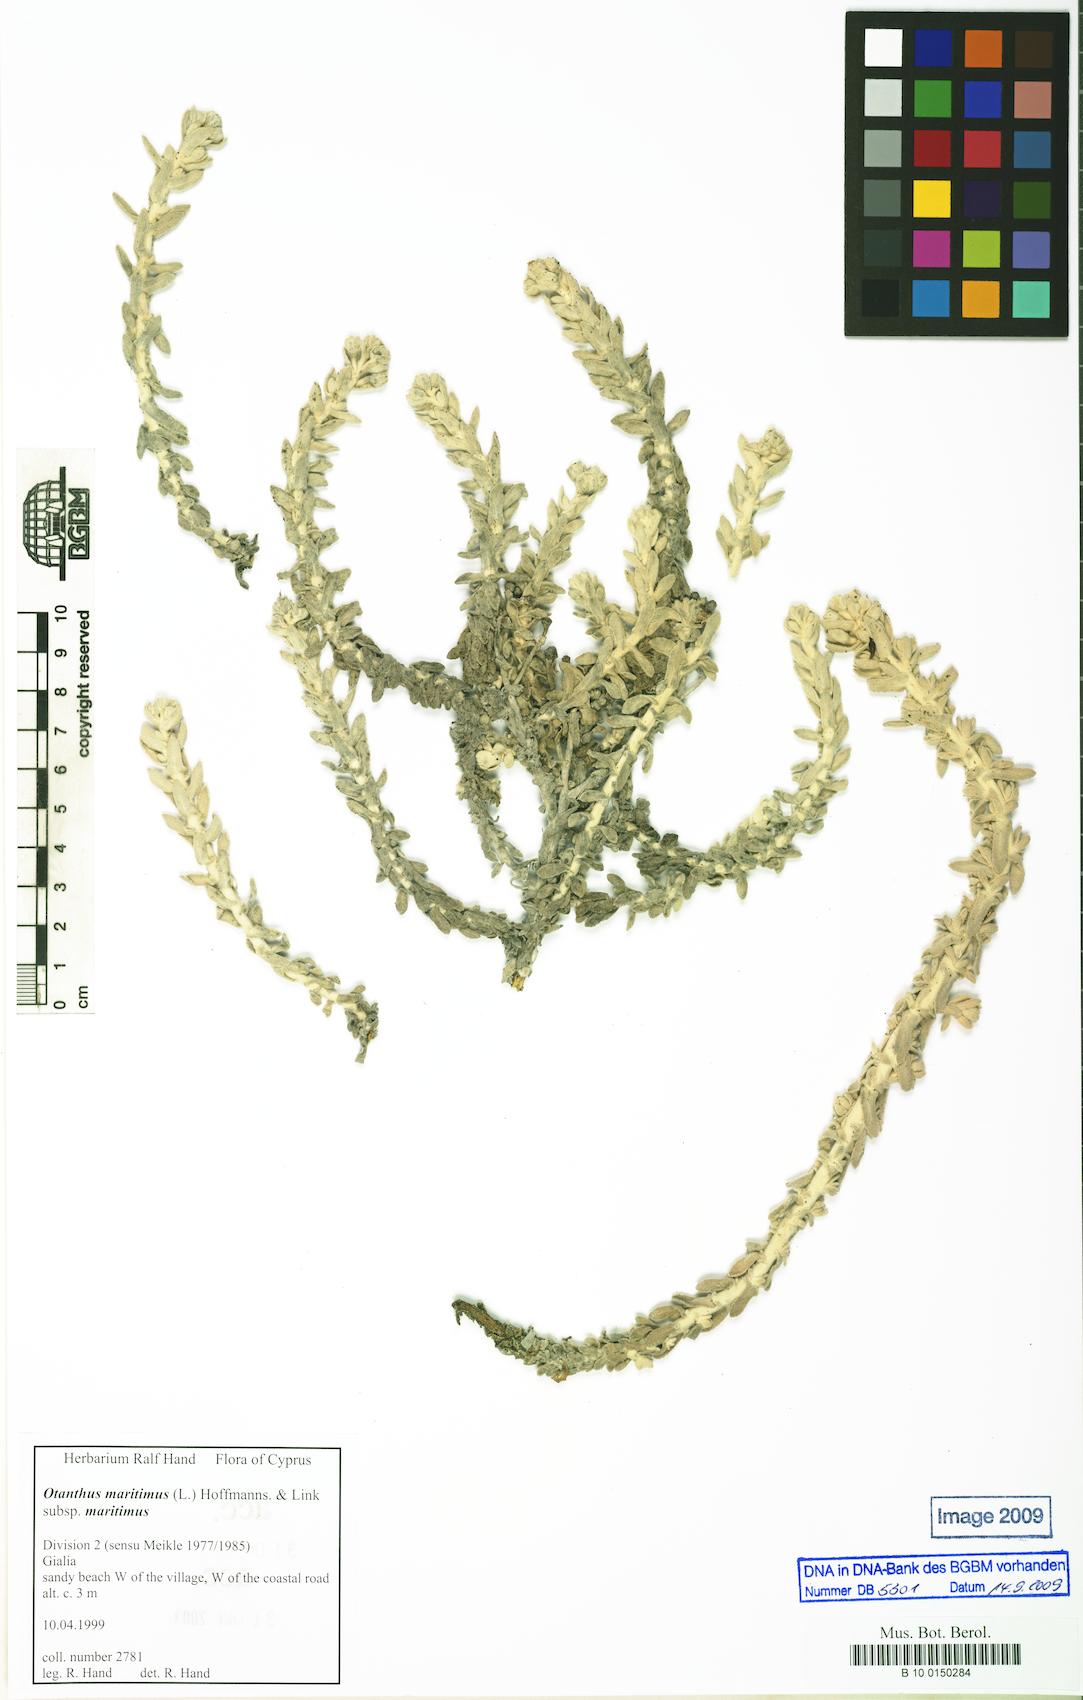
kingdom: Plantae
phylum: Tracheophyta
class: Magnoliopsida
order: Asterales
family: Asteraceae
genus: Achillea
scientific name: Achillea maritima
